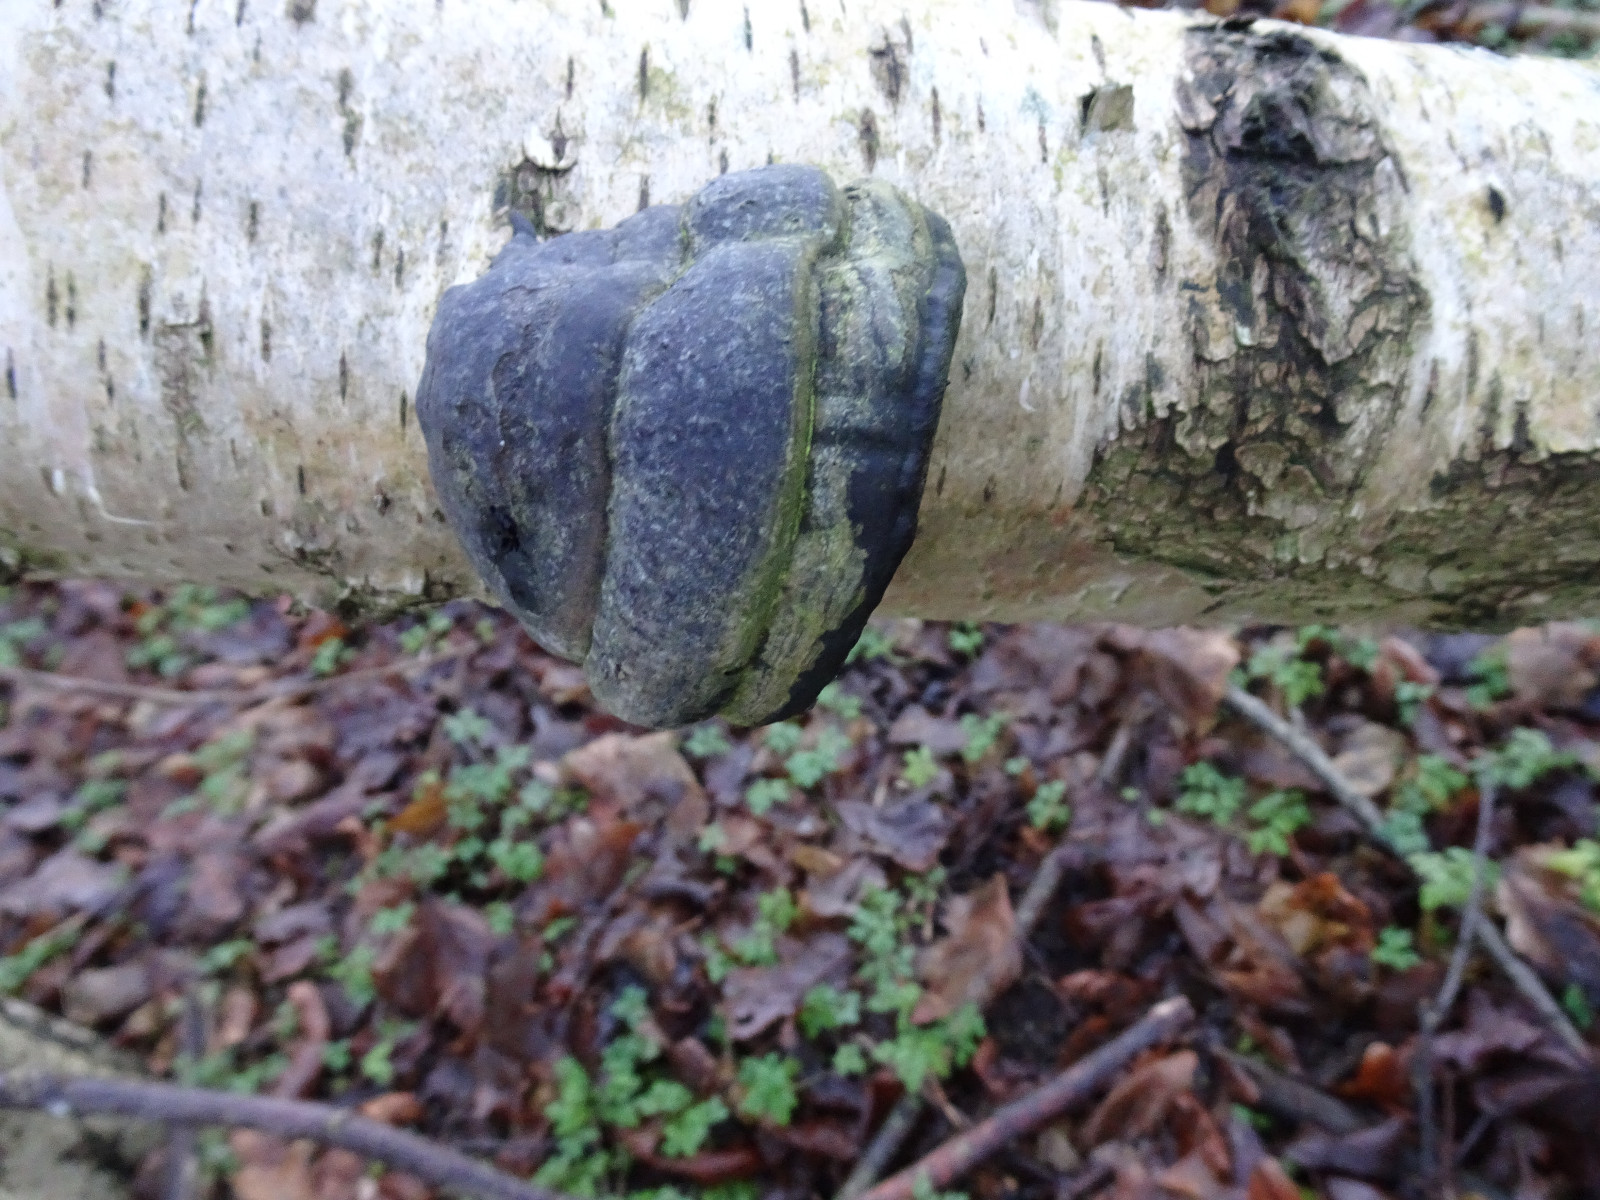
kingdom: Fungi
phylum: Basidiomycota
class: Agaricomycetes
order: Polyporales
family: Polyporaceae
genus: Fomes
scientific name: Fomes fomentarius
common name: tøndersvamp
